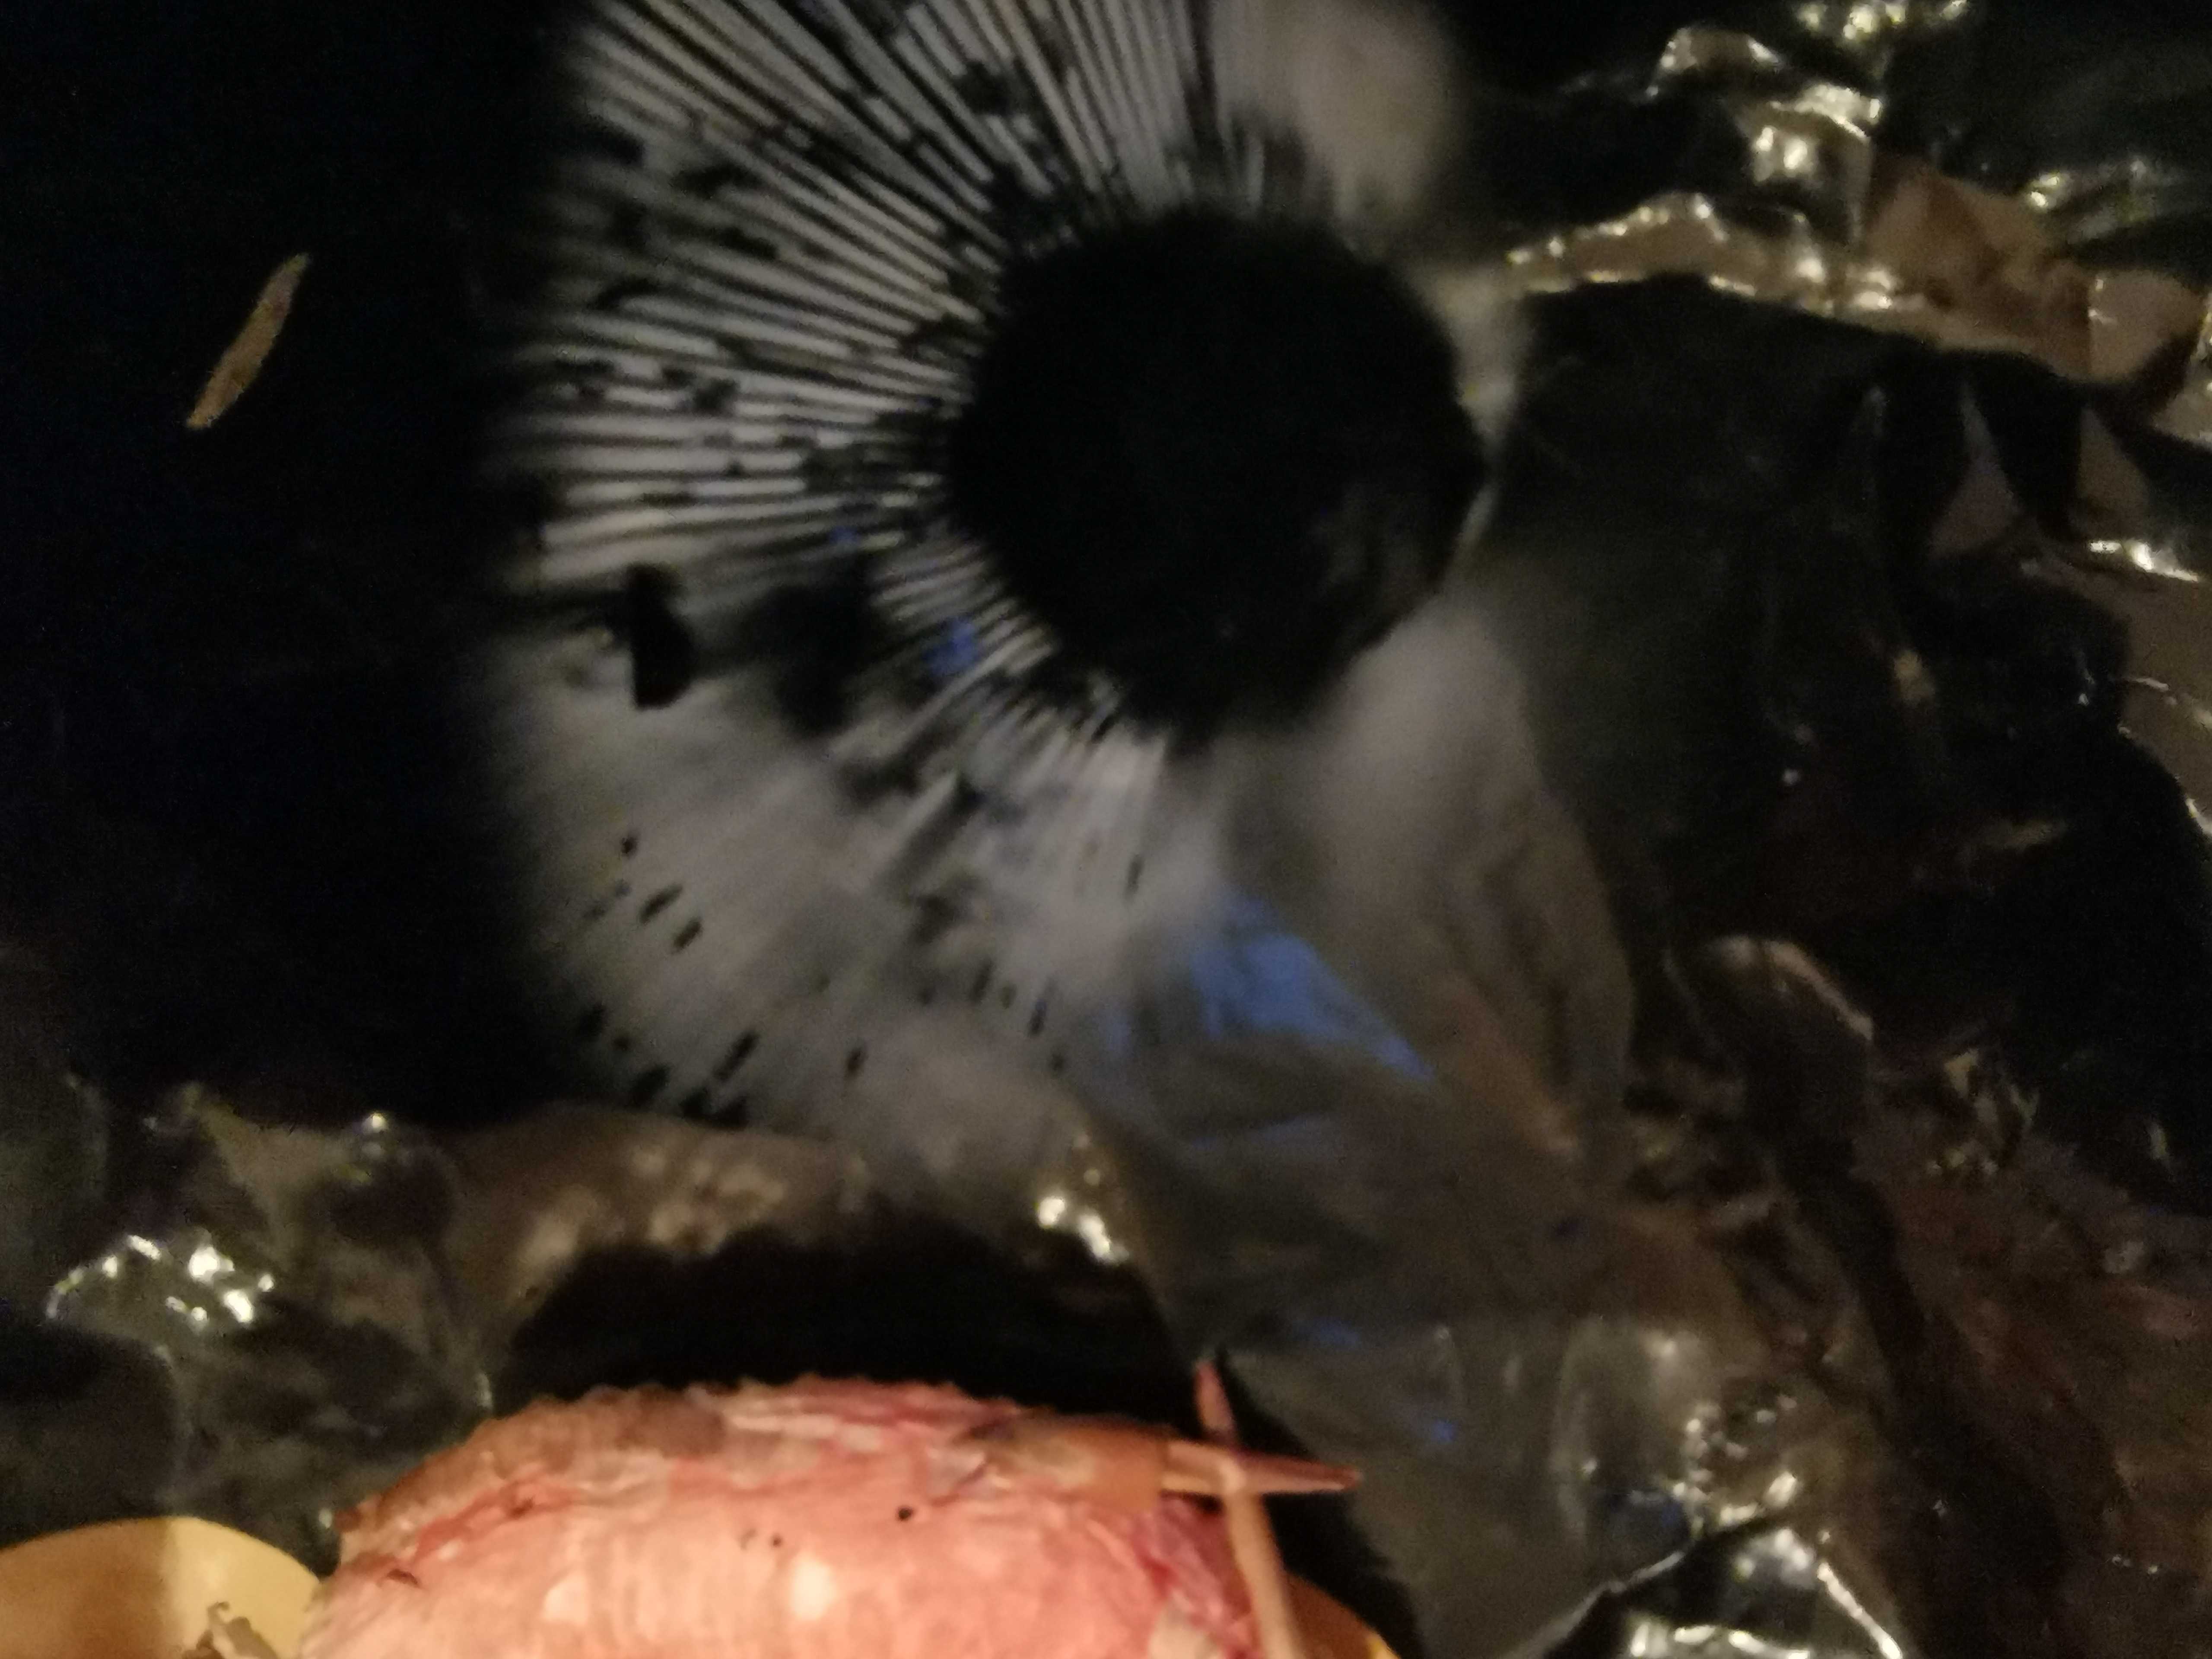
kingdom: Fungi
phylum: Basidiomycota
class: Agaricomycetes
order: Russulales
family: Russulaceae
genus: Russula
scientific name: Russula nobilis
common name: lille gift-skørhat
